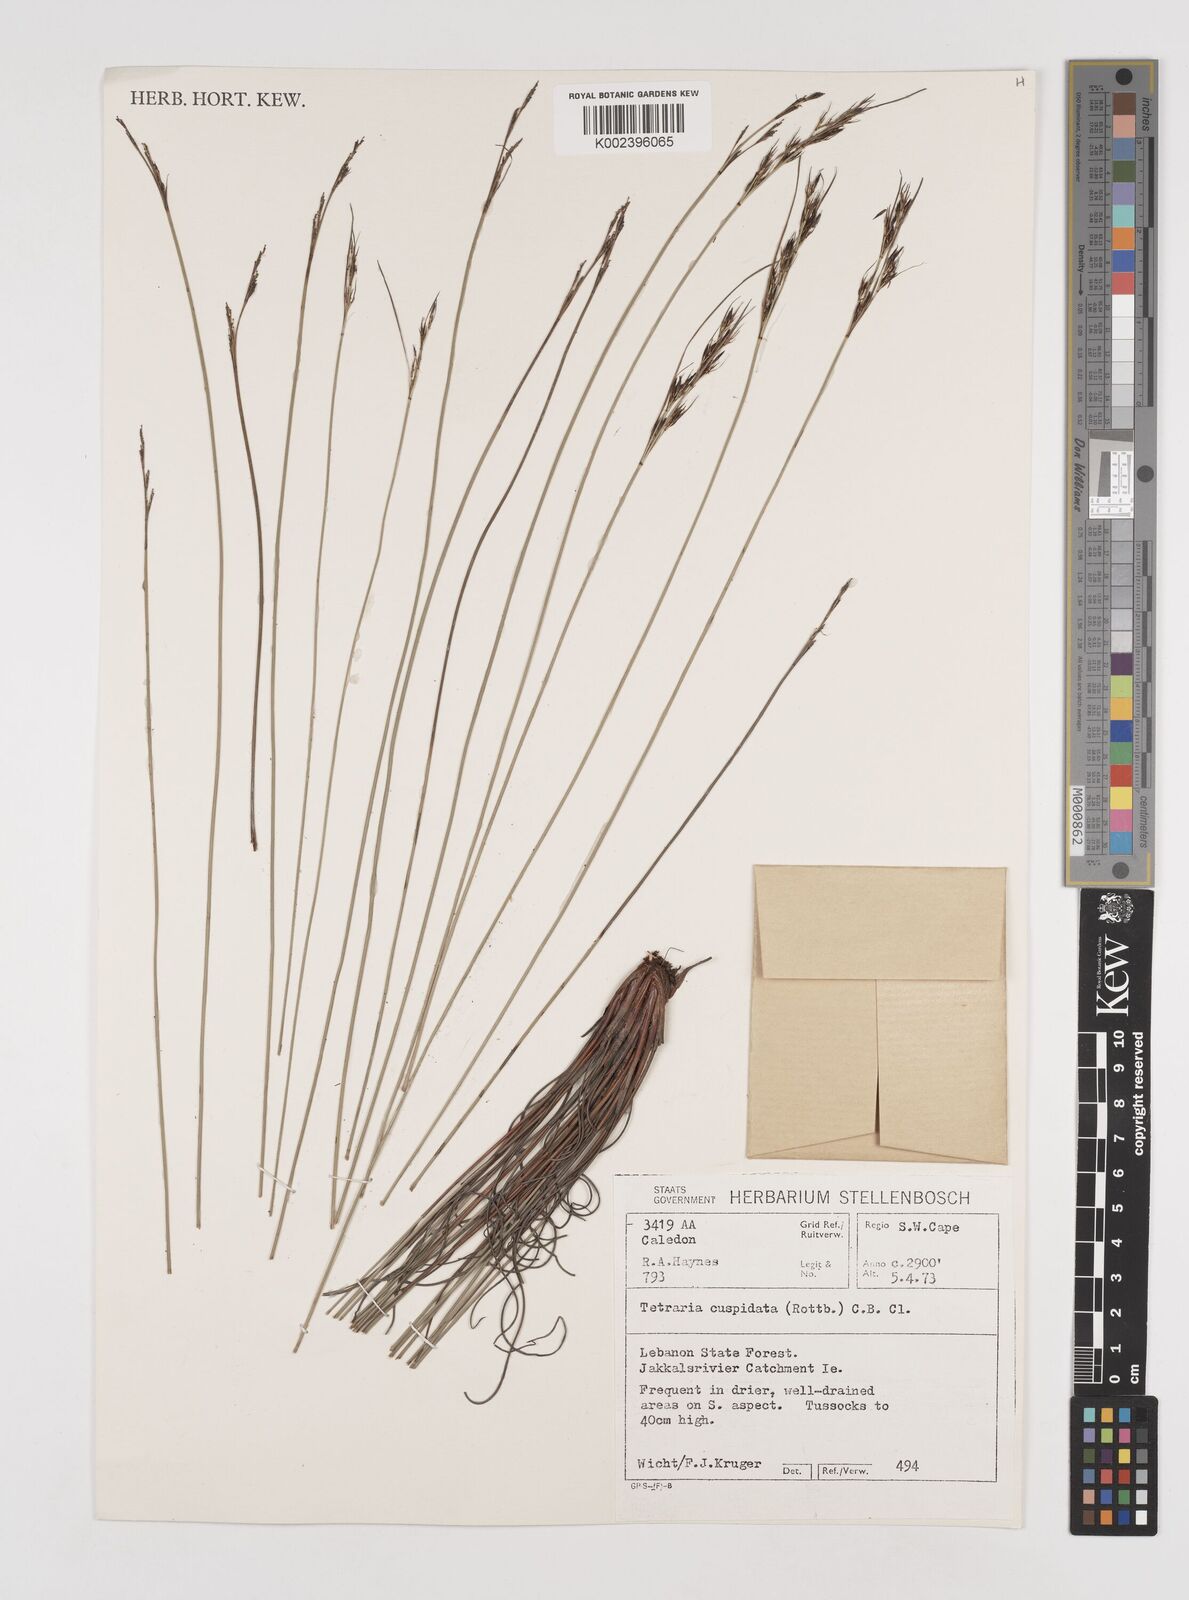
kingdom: Plantae
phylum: Tracheophyta
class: Liliopsida
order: Poales
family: Cyperaceae
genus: Schoenus
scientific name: Schoenus cuspidatus
